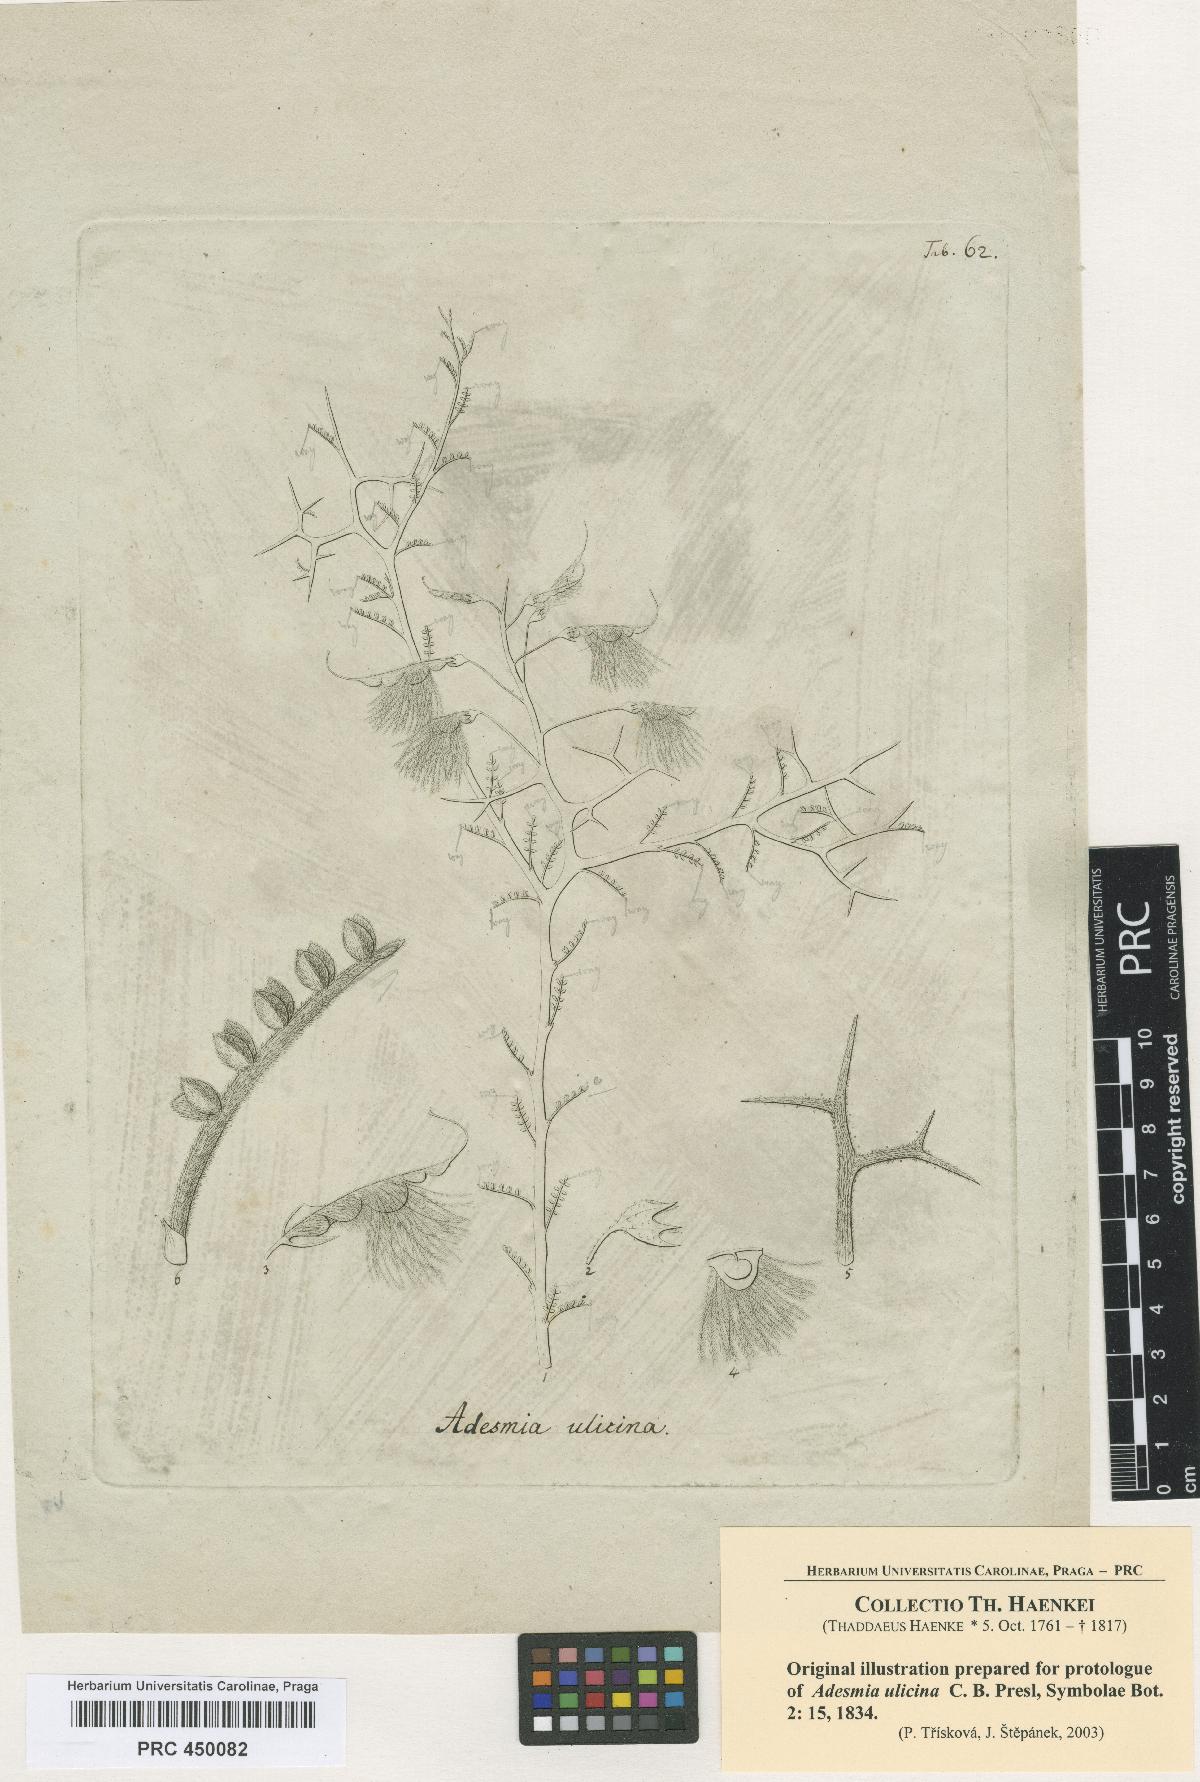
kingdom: Plantae
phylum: Tracheophyta
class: Magnoliopsida
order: Fabales
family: Fabaceae
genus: Adesmia
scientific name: Adesmia pedicellata
